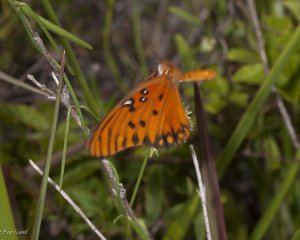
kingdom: Animalia
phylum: Arthropoda
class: Insecta
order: Lepidoptera
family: Nymphalidae
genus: Dione
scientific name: Dione vanillae
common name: Gulf Fritillary
